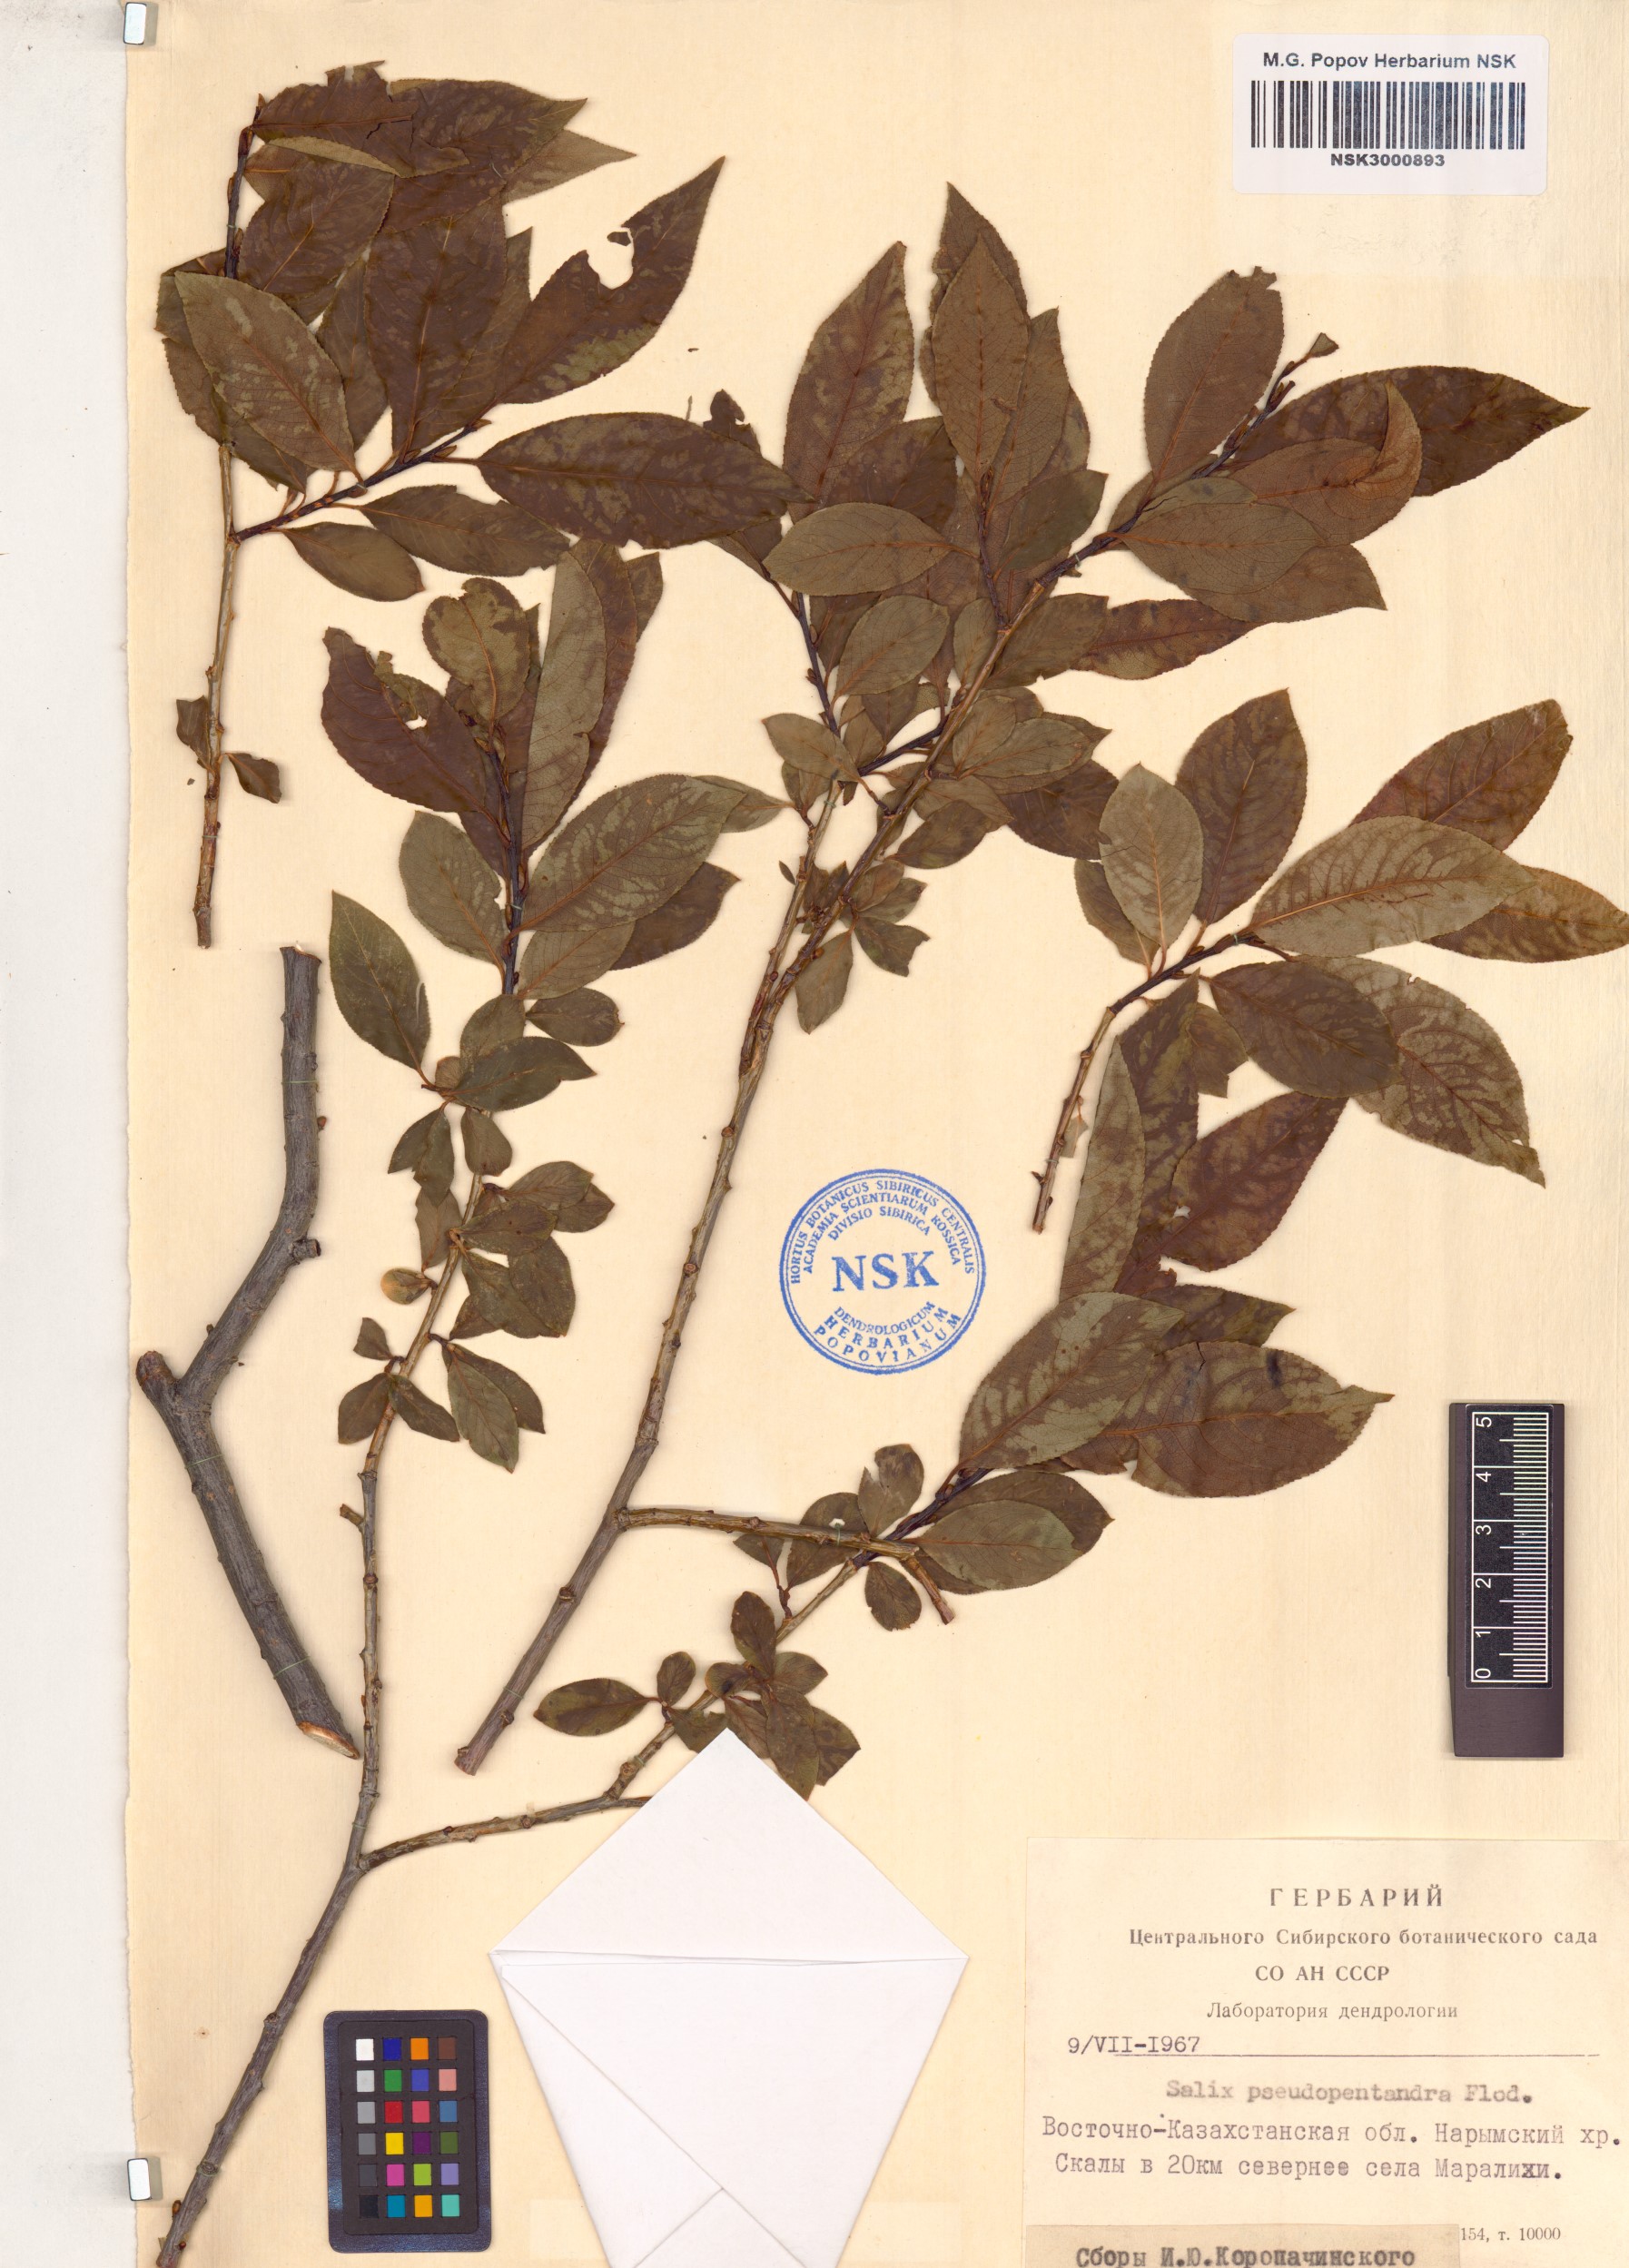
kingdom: Plantae
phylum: Tracheophyta
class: Magnoliopsida
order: Malpighiales
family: Salicaceae
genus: Salix
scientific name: Salix pseudopentandra
